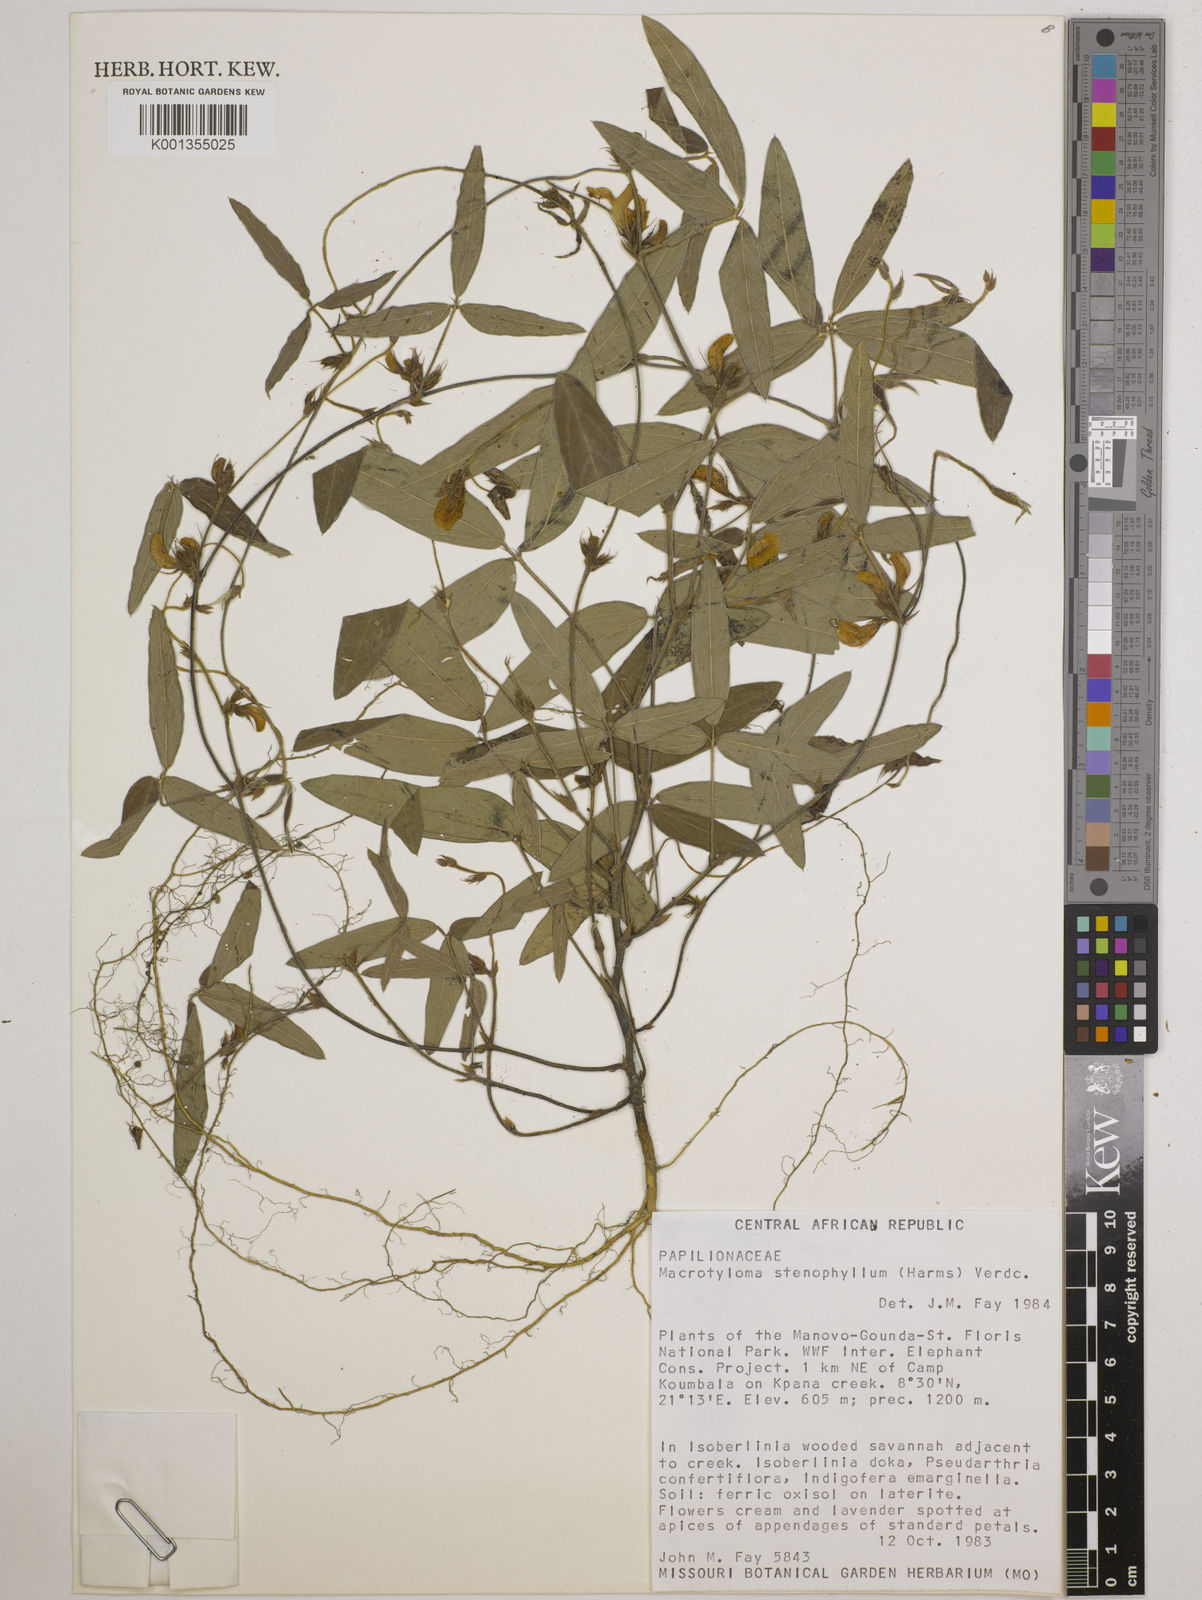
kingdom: Plantae
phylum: Tracheophyta
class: Magnoliopsida
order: Fabales
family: Fabaceae
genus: Macrotyloma
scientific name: Macrotyloma stenophyllum
